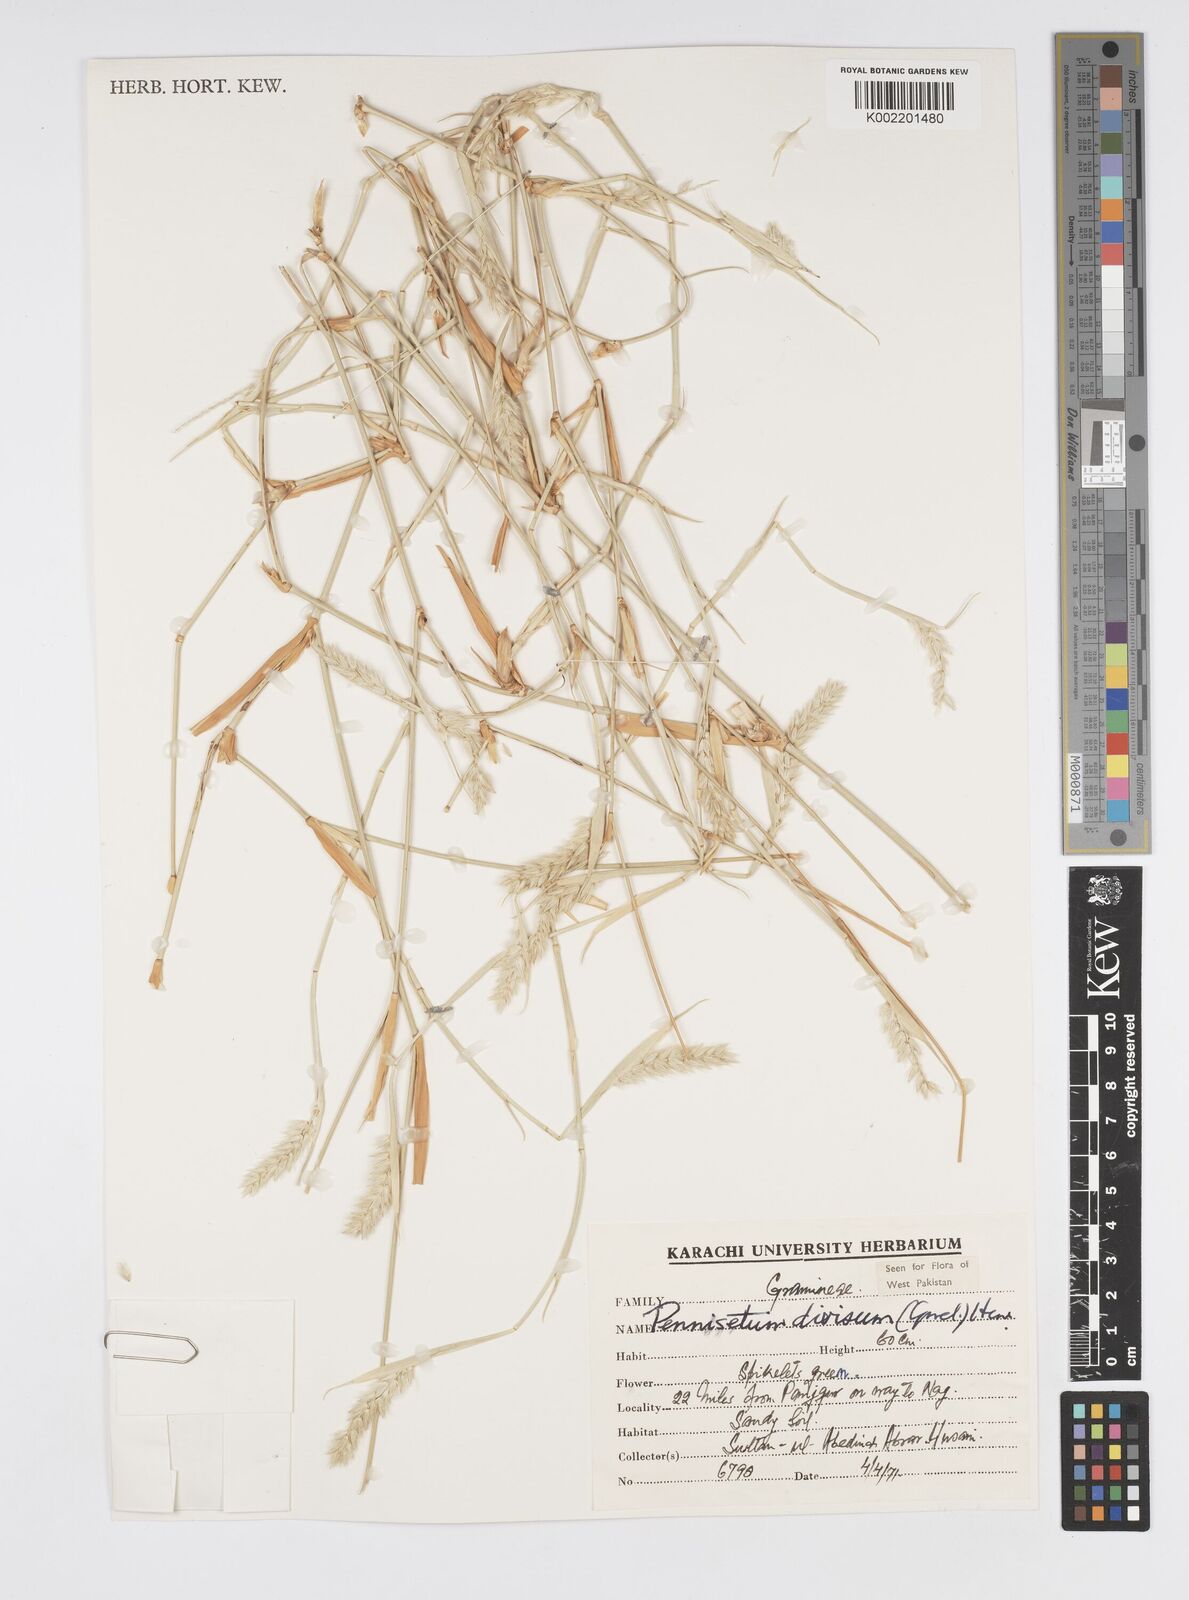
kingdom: Plantae
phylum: Tracheophyta
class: Liliopsida
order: Poales
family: Poaceae
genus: Cenchrus
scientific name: Cenchrus divisus
